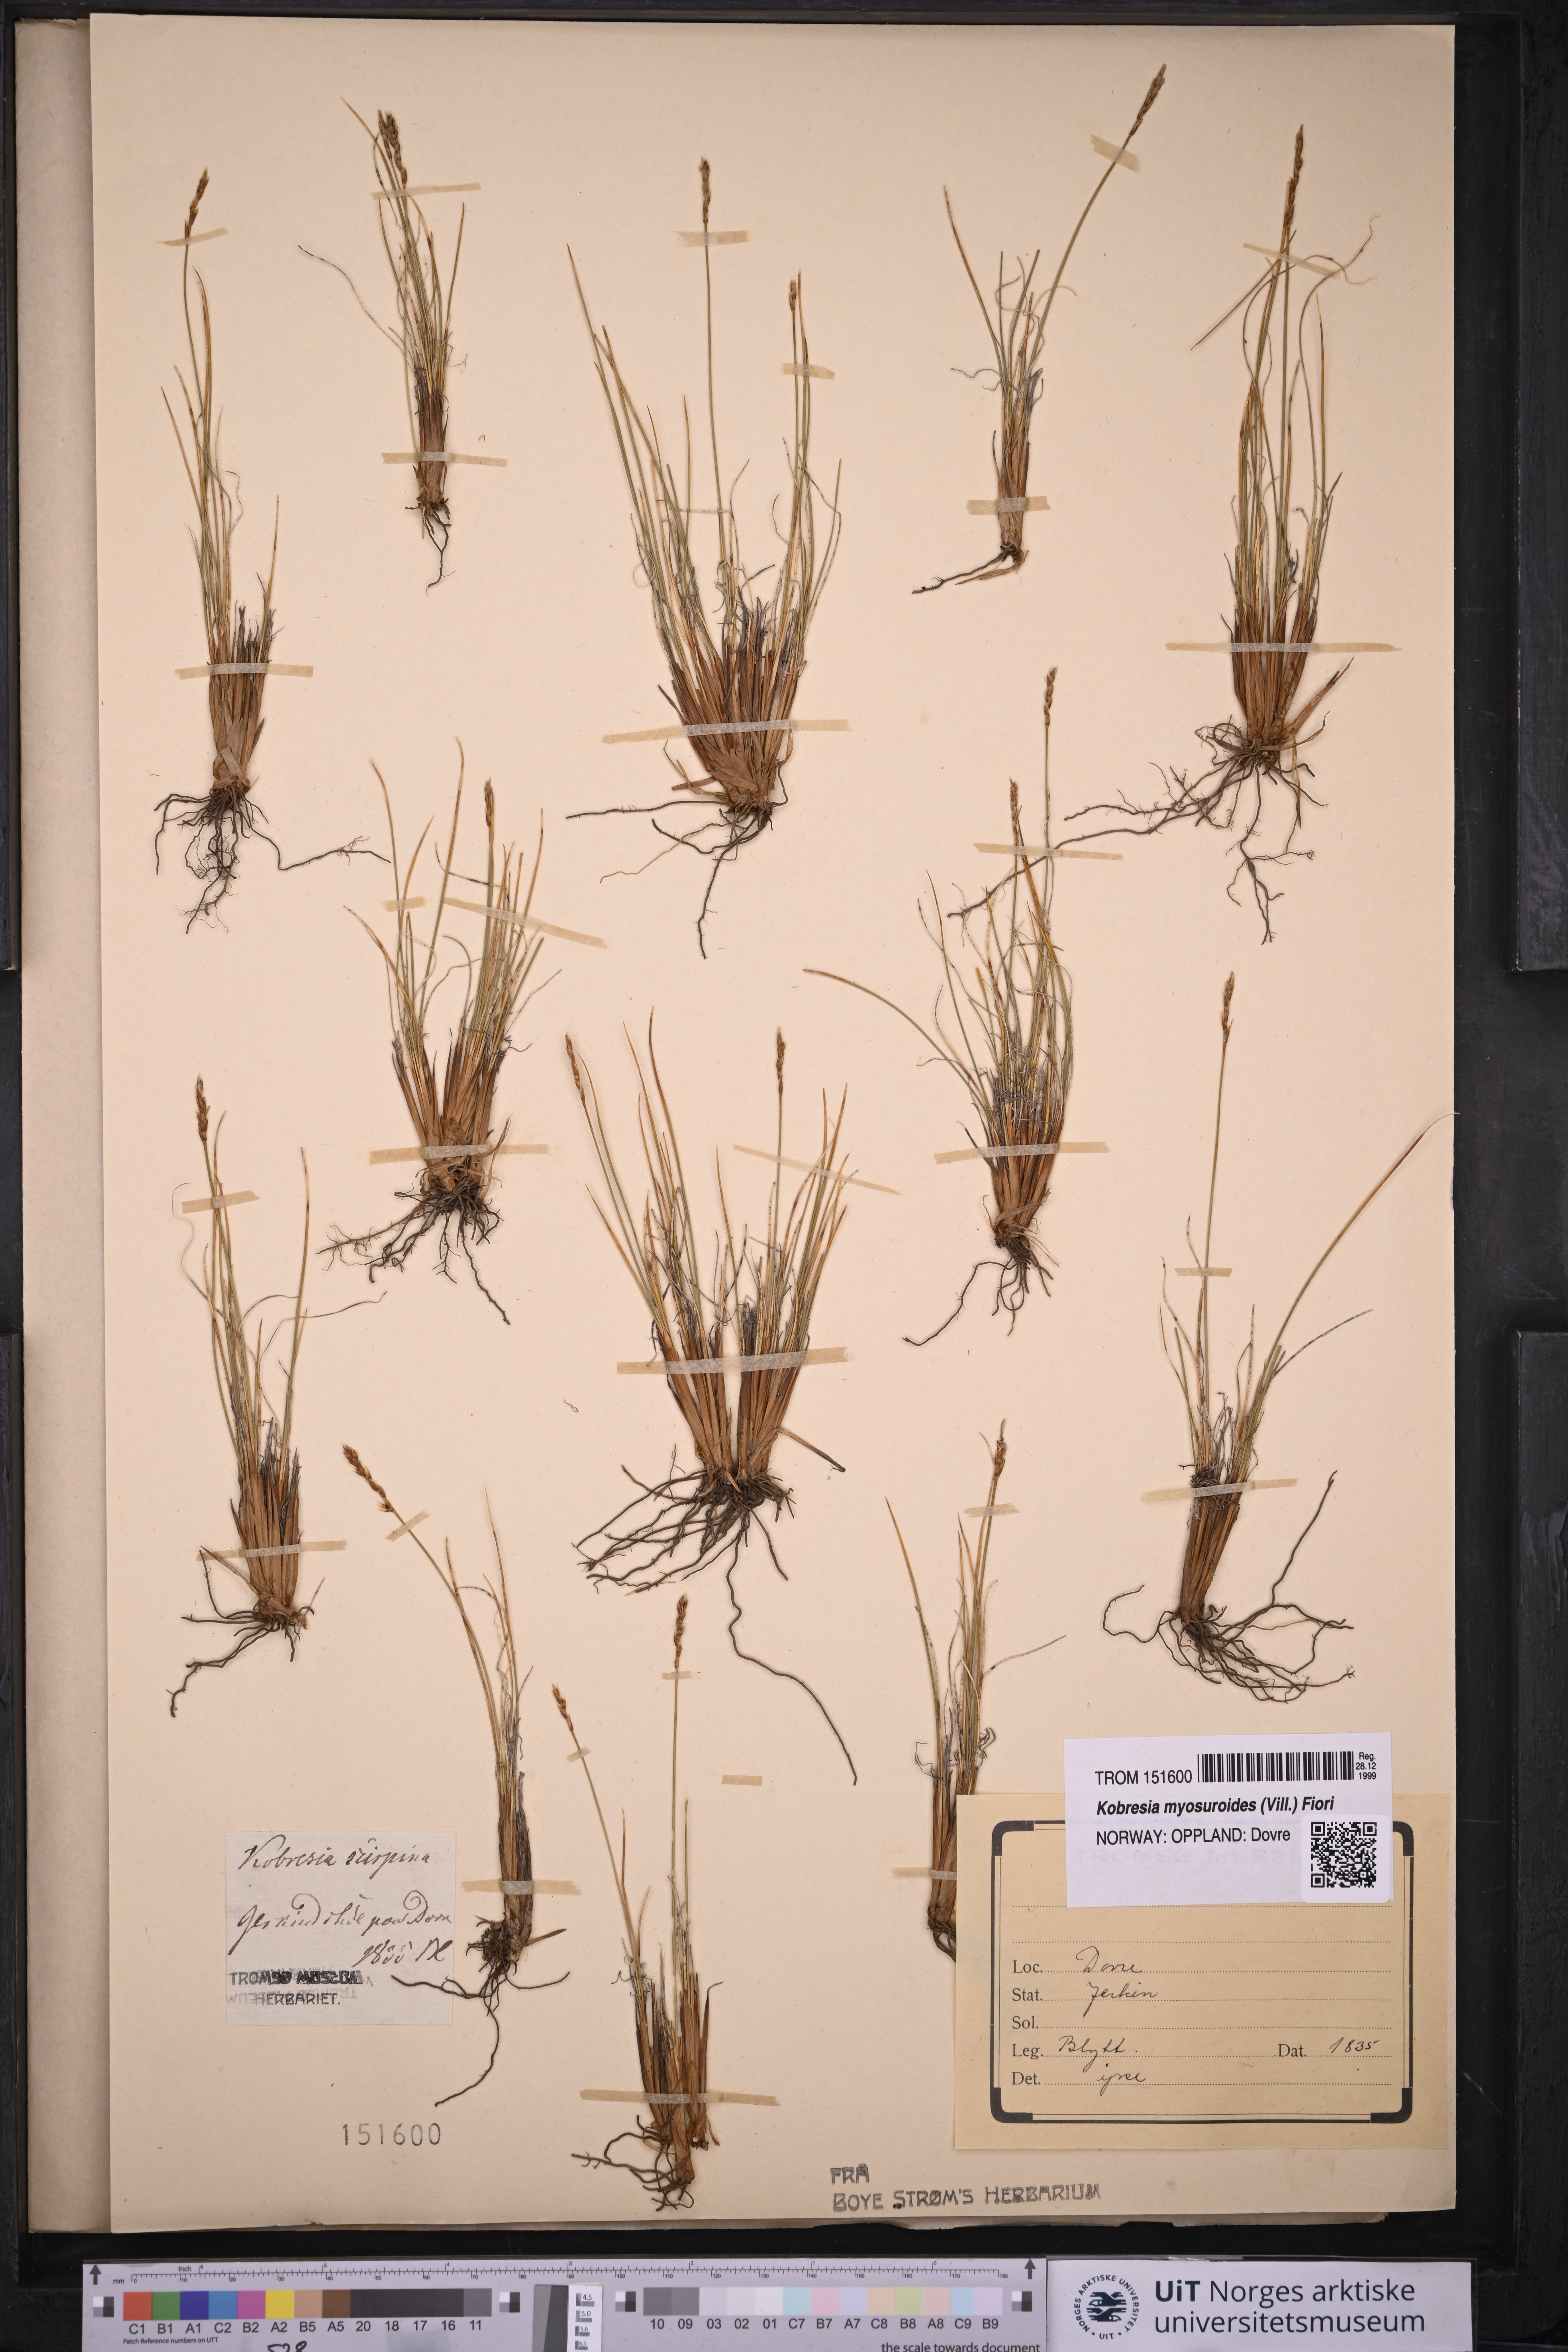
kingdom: Plantae
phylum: Tracheophyta
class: Liliopsida
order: Poales
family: Cyperaceae
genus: Carex
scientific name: Carex myosuroides
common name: Bellard's bog sedge
